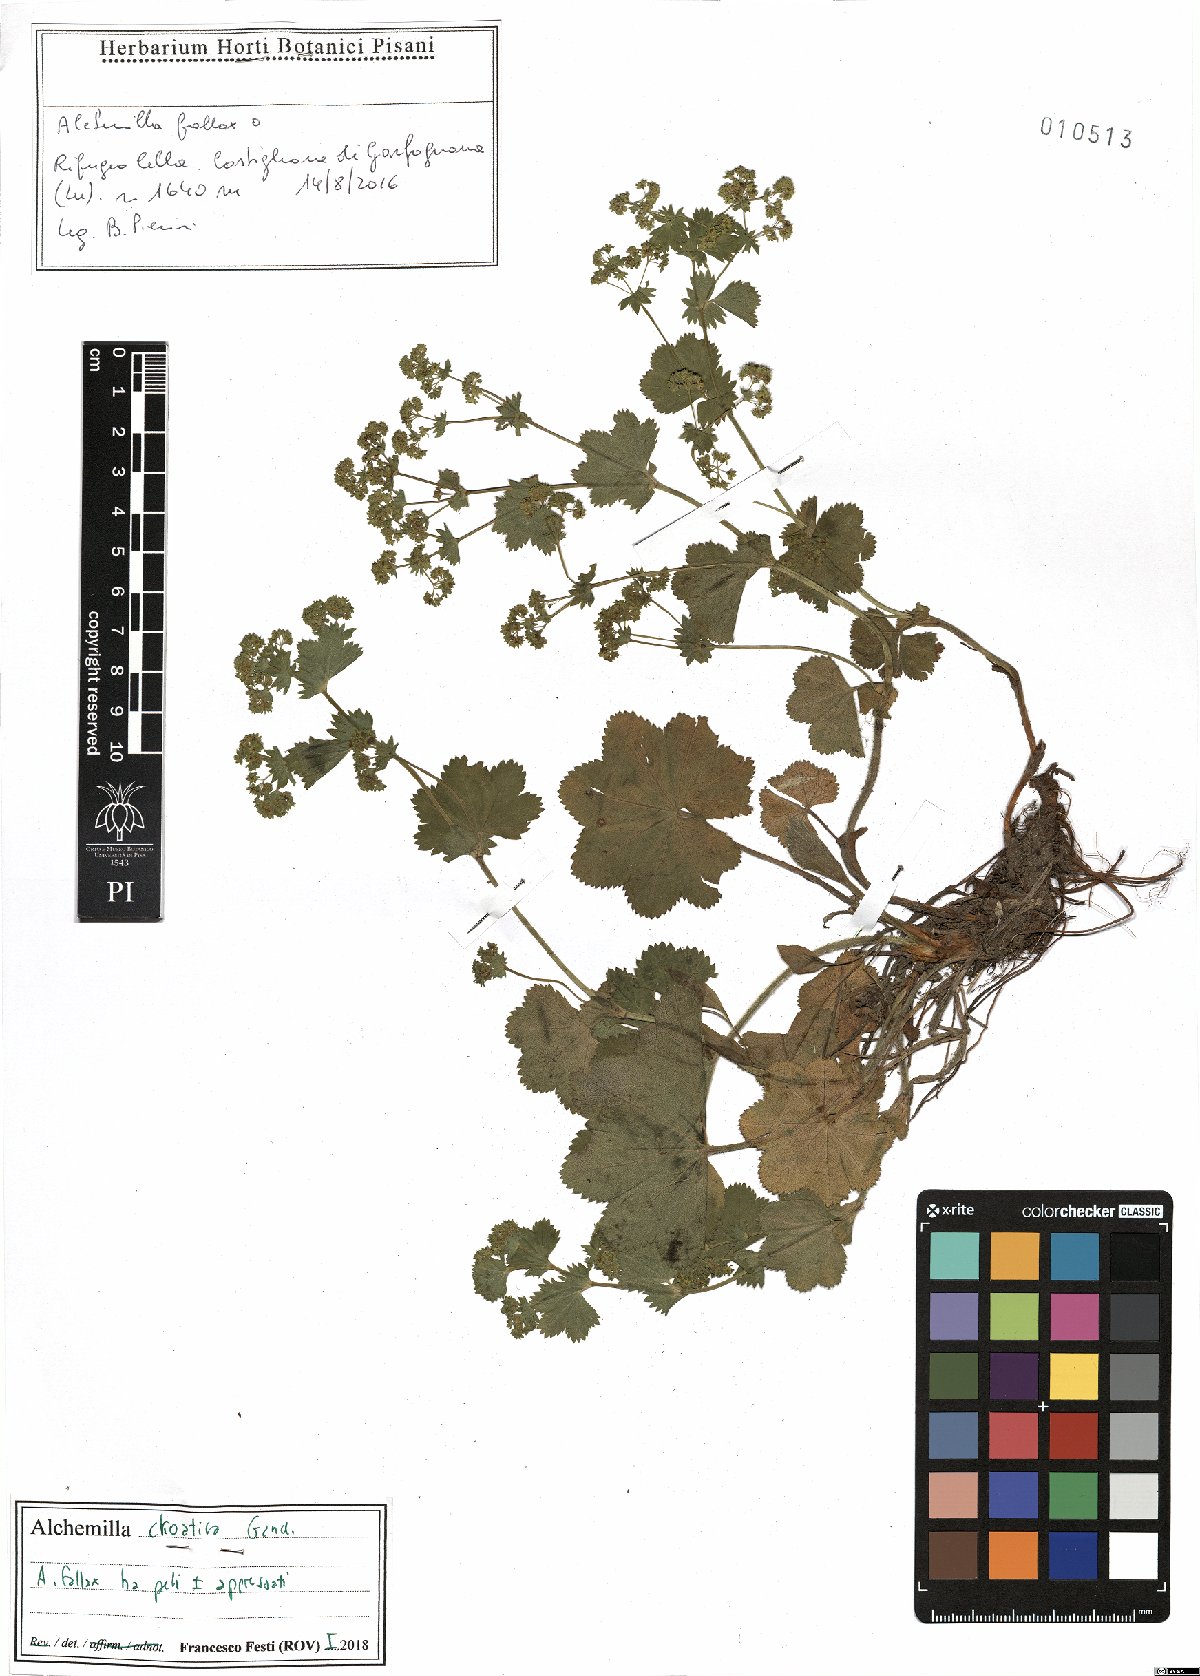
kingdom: Plantae
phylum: Tracheophyta
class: Magnoliopsida
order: Rosales
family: Rosaceae
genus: Alchemilla
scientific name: Alchemilla croatica
